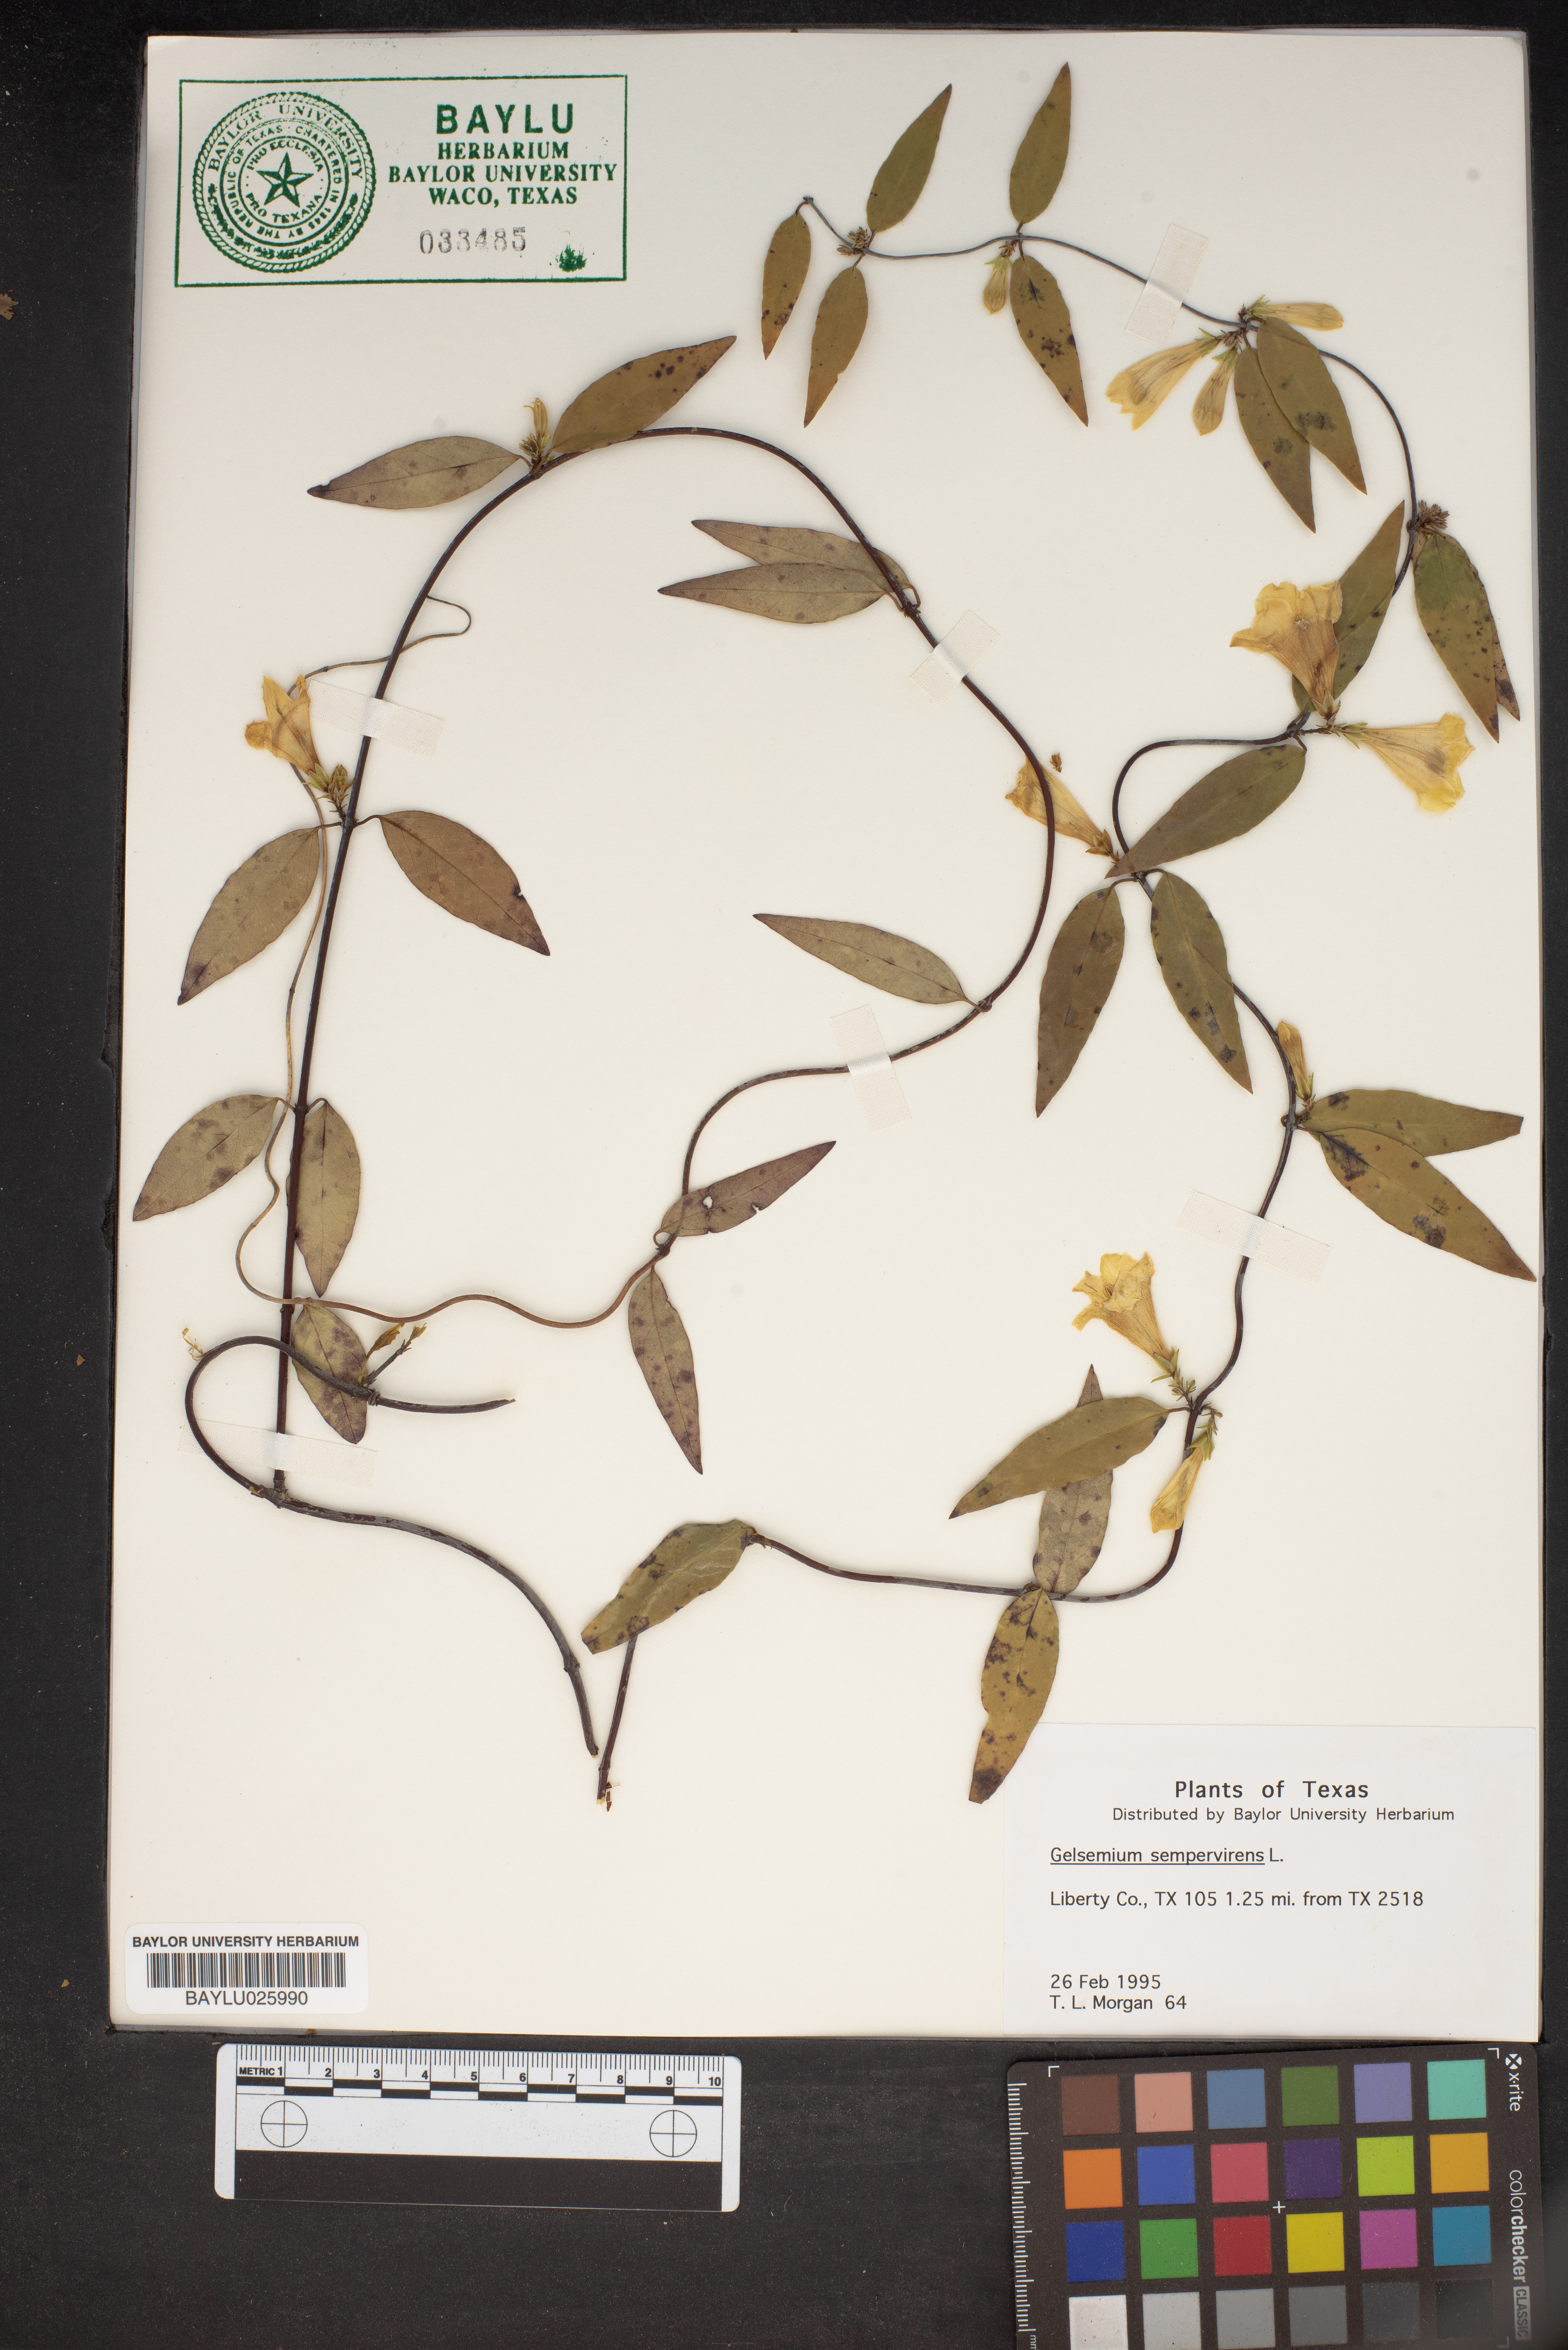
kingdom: Plantae
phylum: Tracheophyta
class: Magnoliopsida
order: Gentianales
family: Gelsemiaceae
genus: Gelsemium
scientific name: Gelsemium sempervirens
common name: Carolina-jasmine
